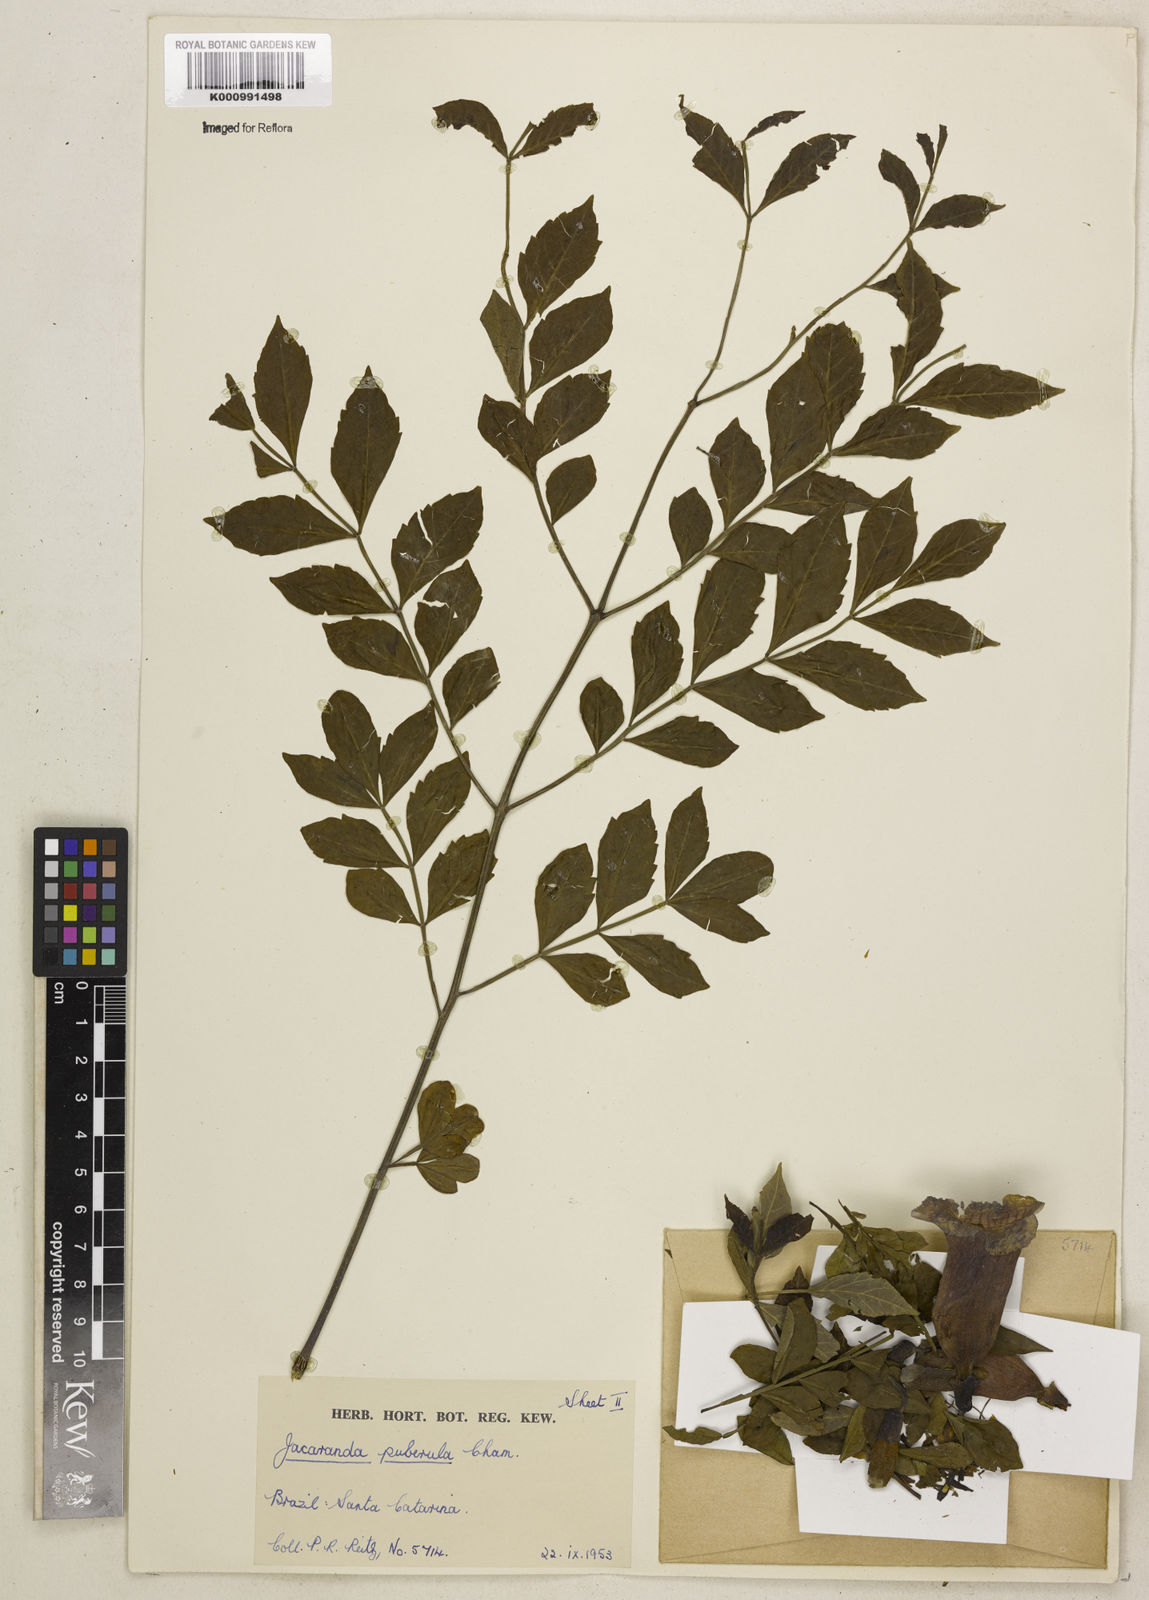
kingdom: Plantae
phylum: Tracheophyta
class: Magnoliopsida
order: Lamiales
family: Bignoniaceae
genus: Jacaranda
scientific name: Jacaranda puberula
